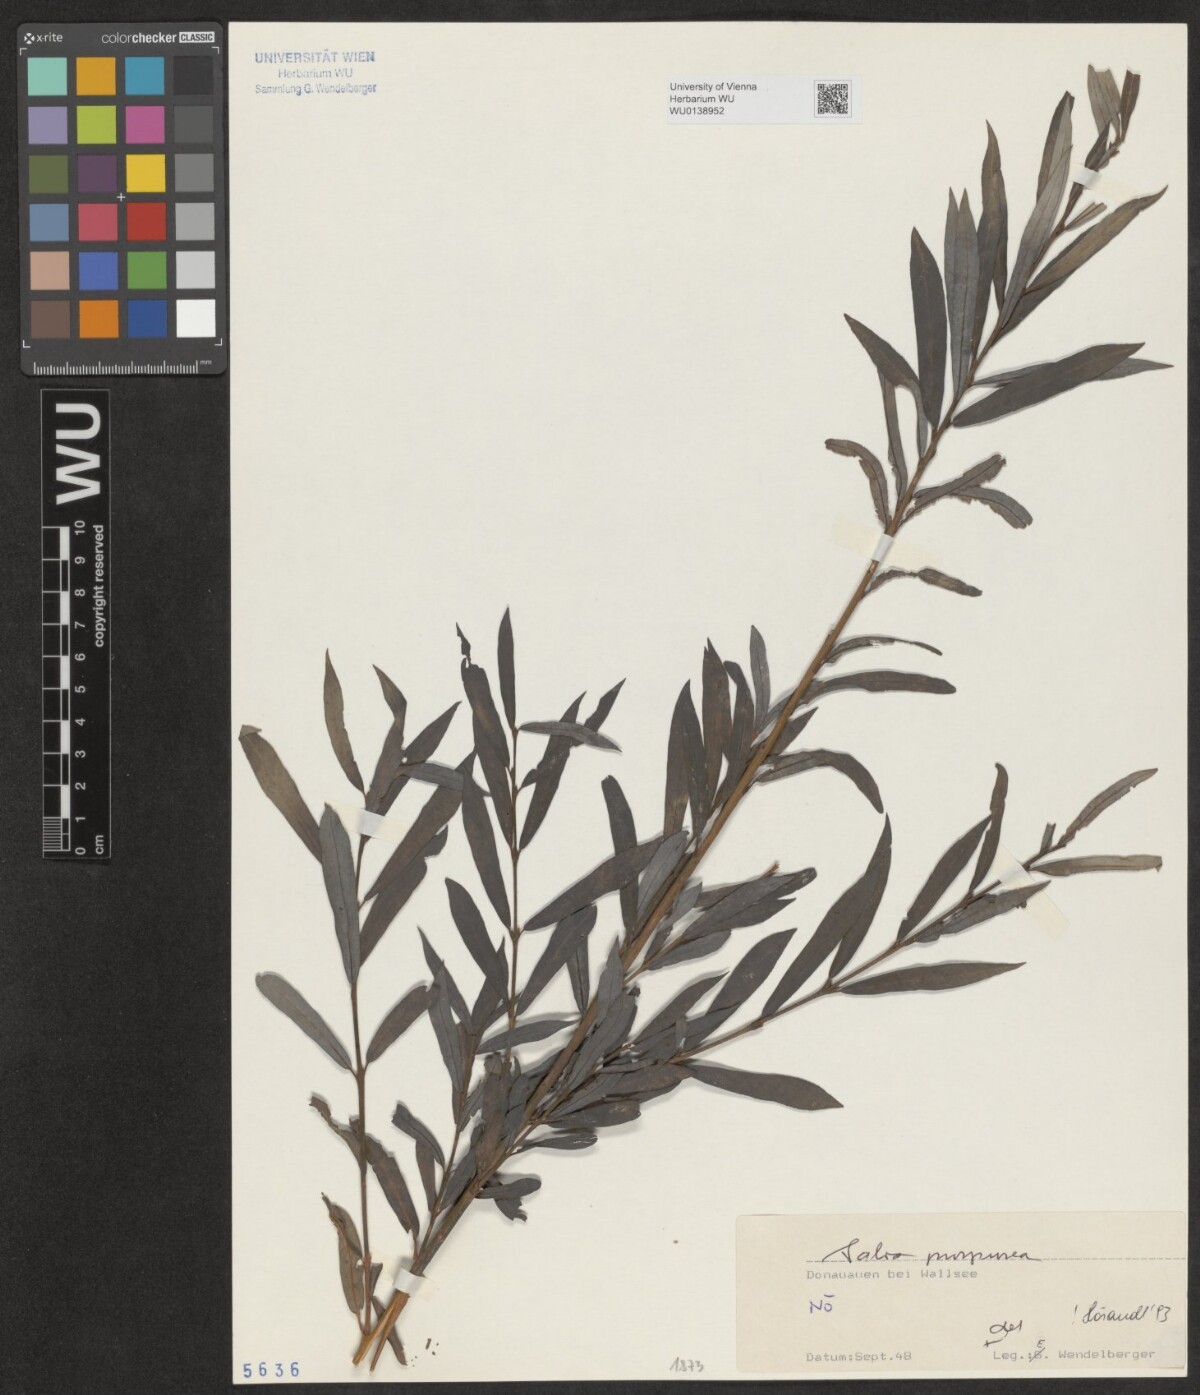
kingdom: Plantae
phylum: Tracheophyta
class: Magnoliopsida
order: Malpighiales
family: Salicaceae
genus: Salix
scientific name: Salix purpurea
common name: Purple willow
